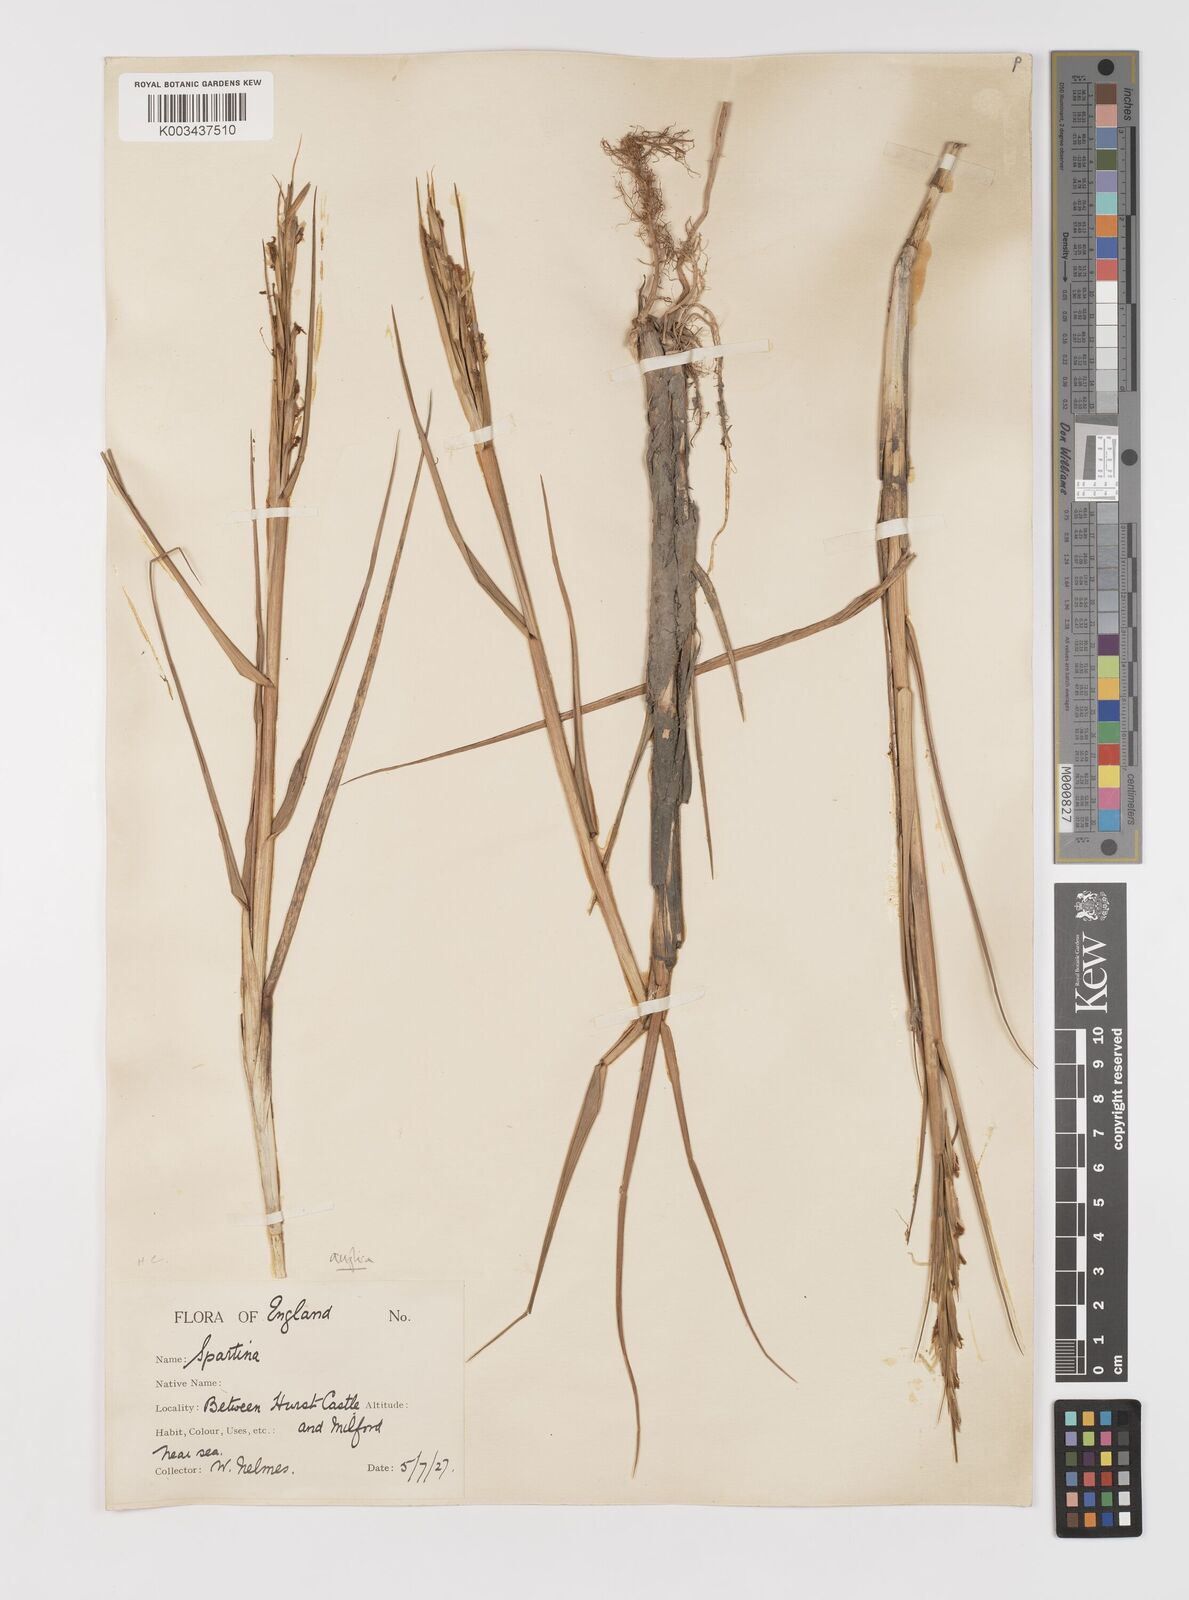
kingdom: Plantae
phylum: Tracheophyta
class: Liliopsida
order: Poales
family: Poaceae
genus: Sporobolus
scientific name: Sporobolus anglicus
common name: English cordgrass
